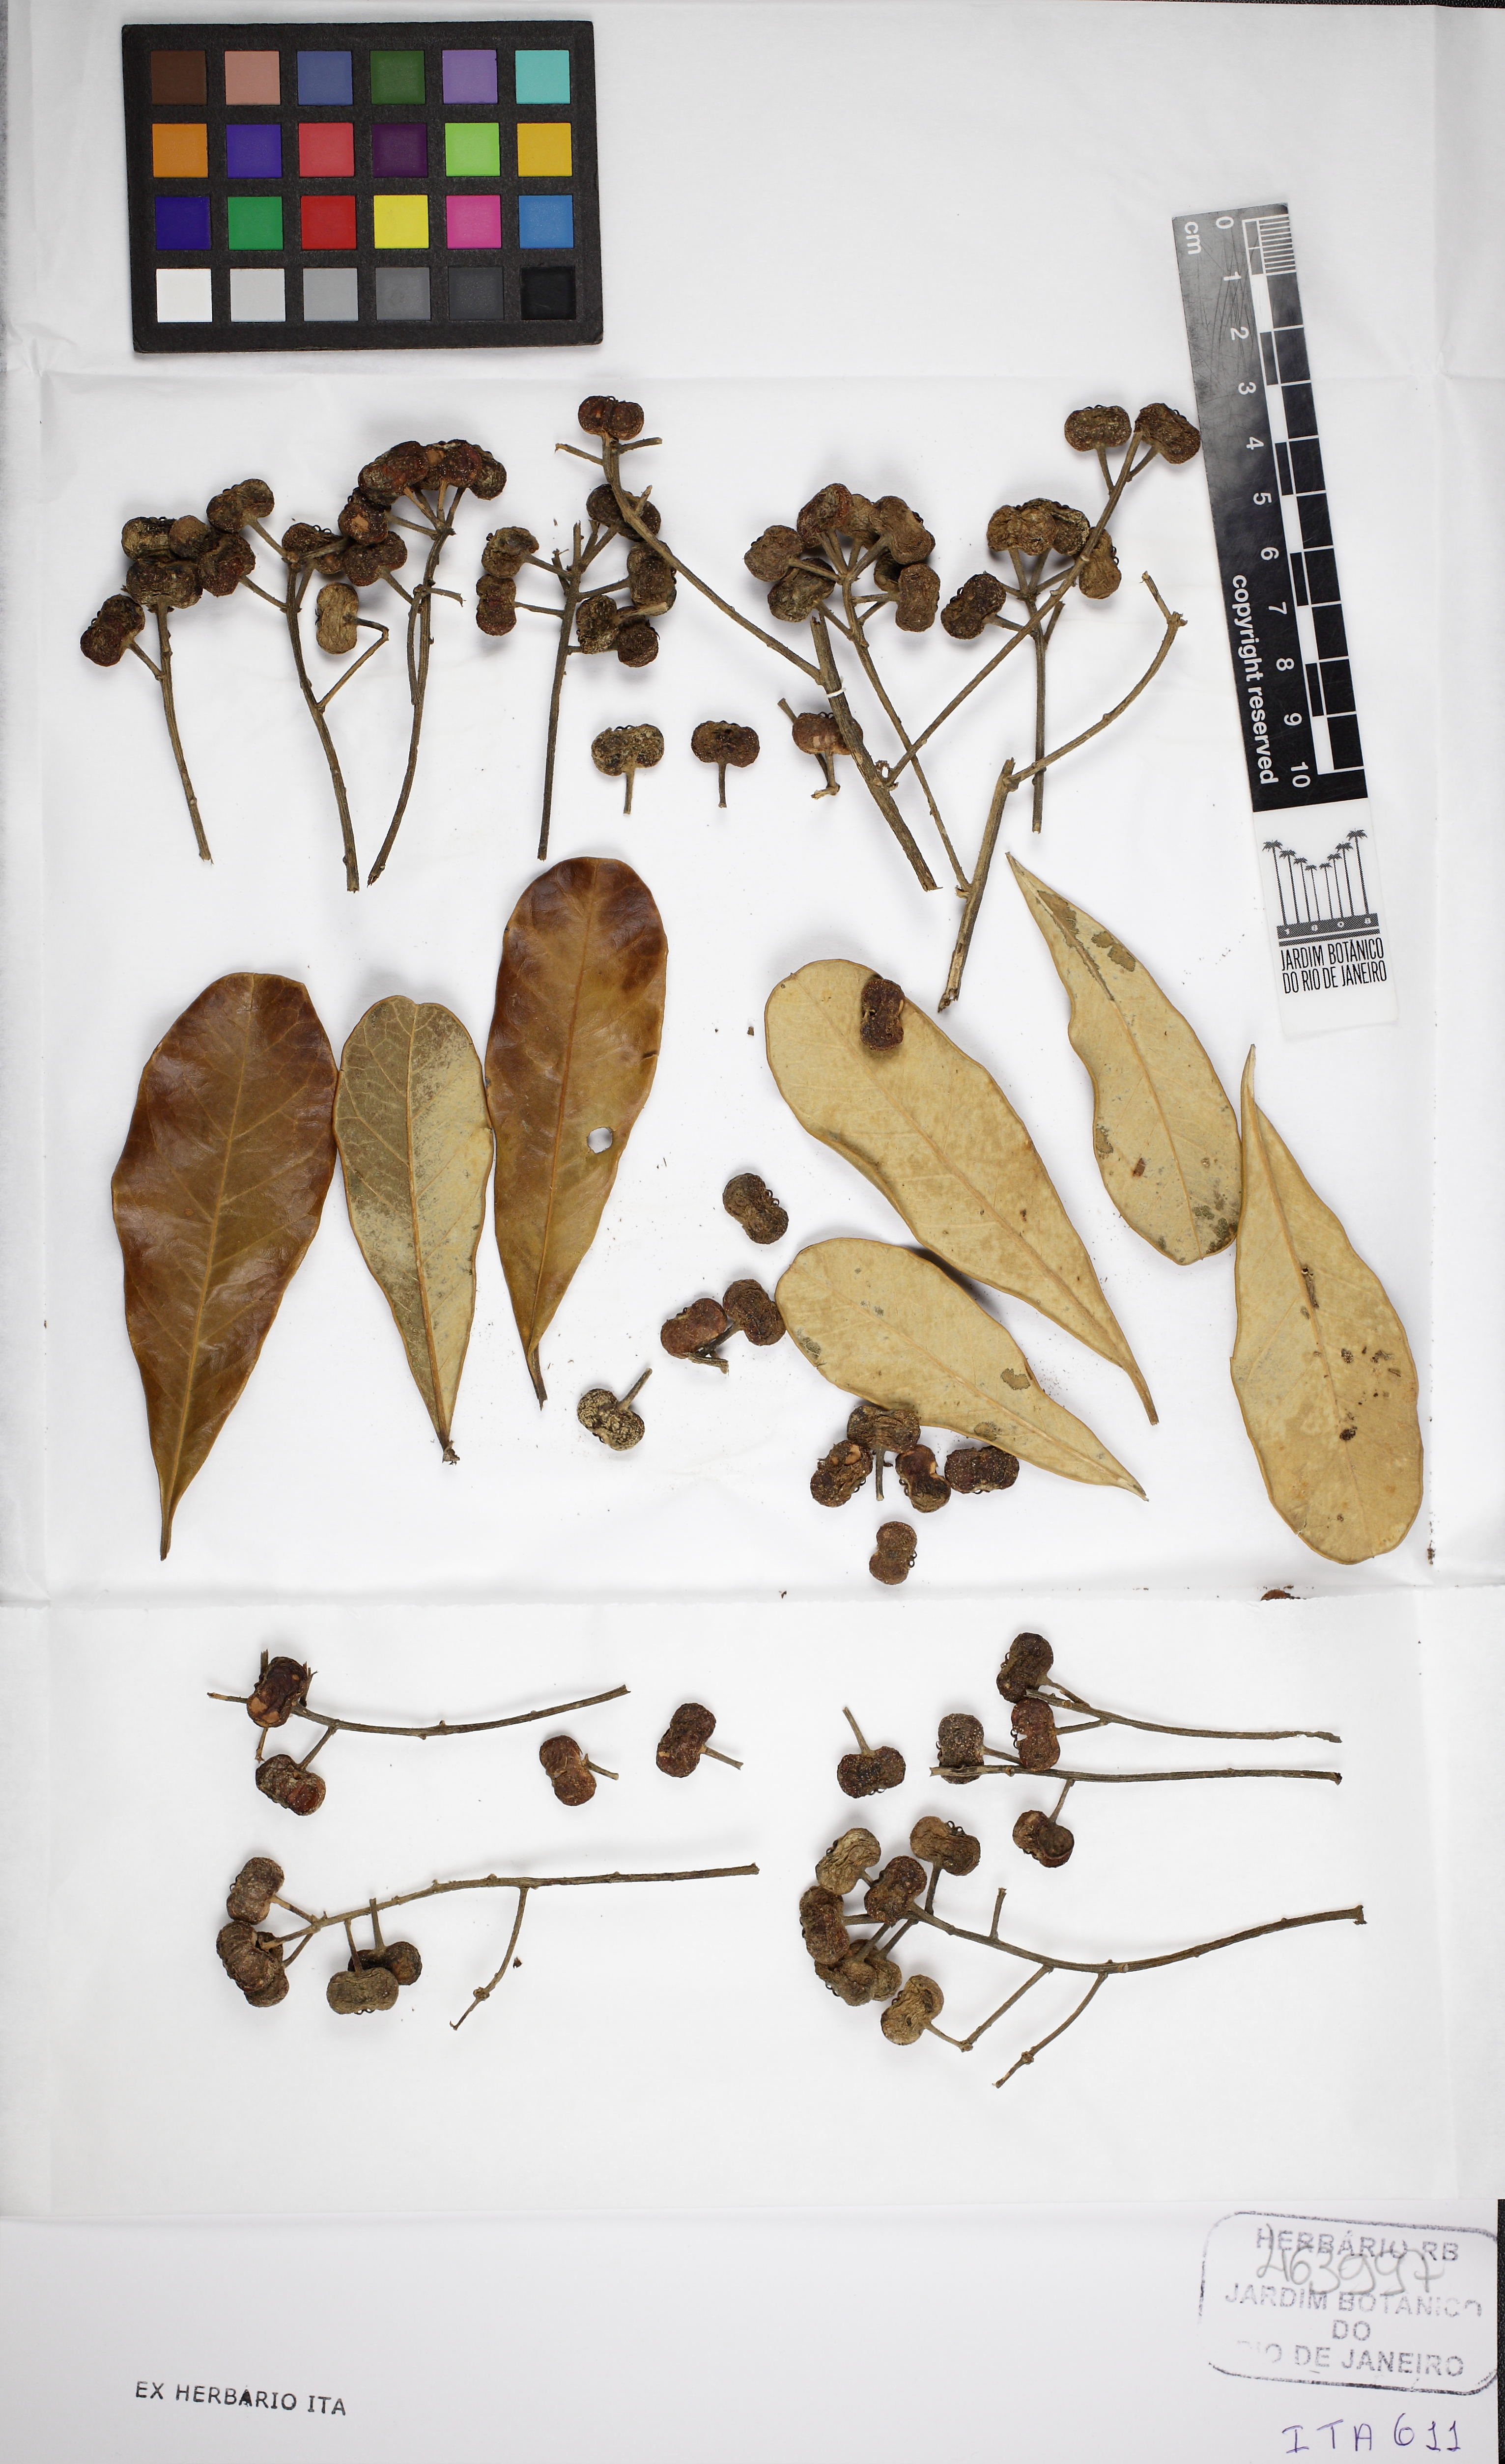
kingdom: Plantae
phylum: Tracheophyta
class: Magnoliopsida
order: Apiales
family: Araliaceae
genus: Didymopanax
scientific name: Didymopanax macrocarpus
